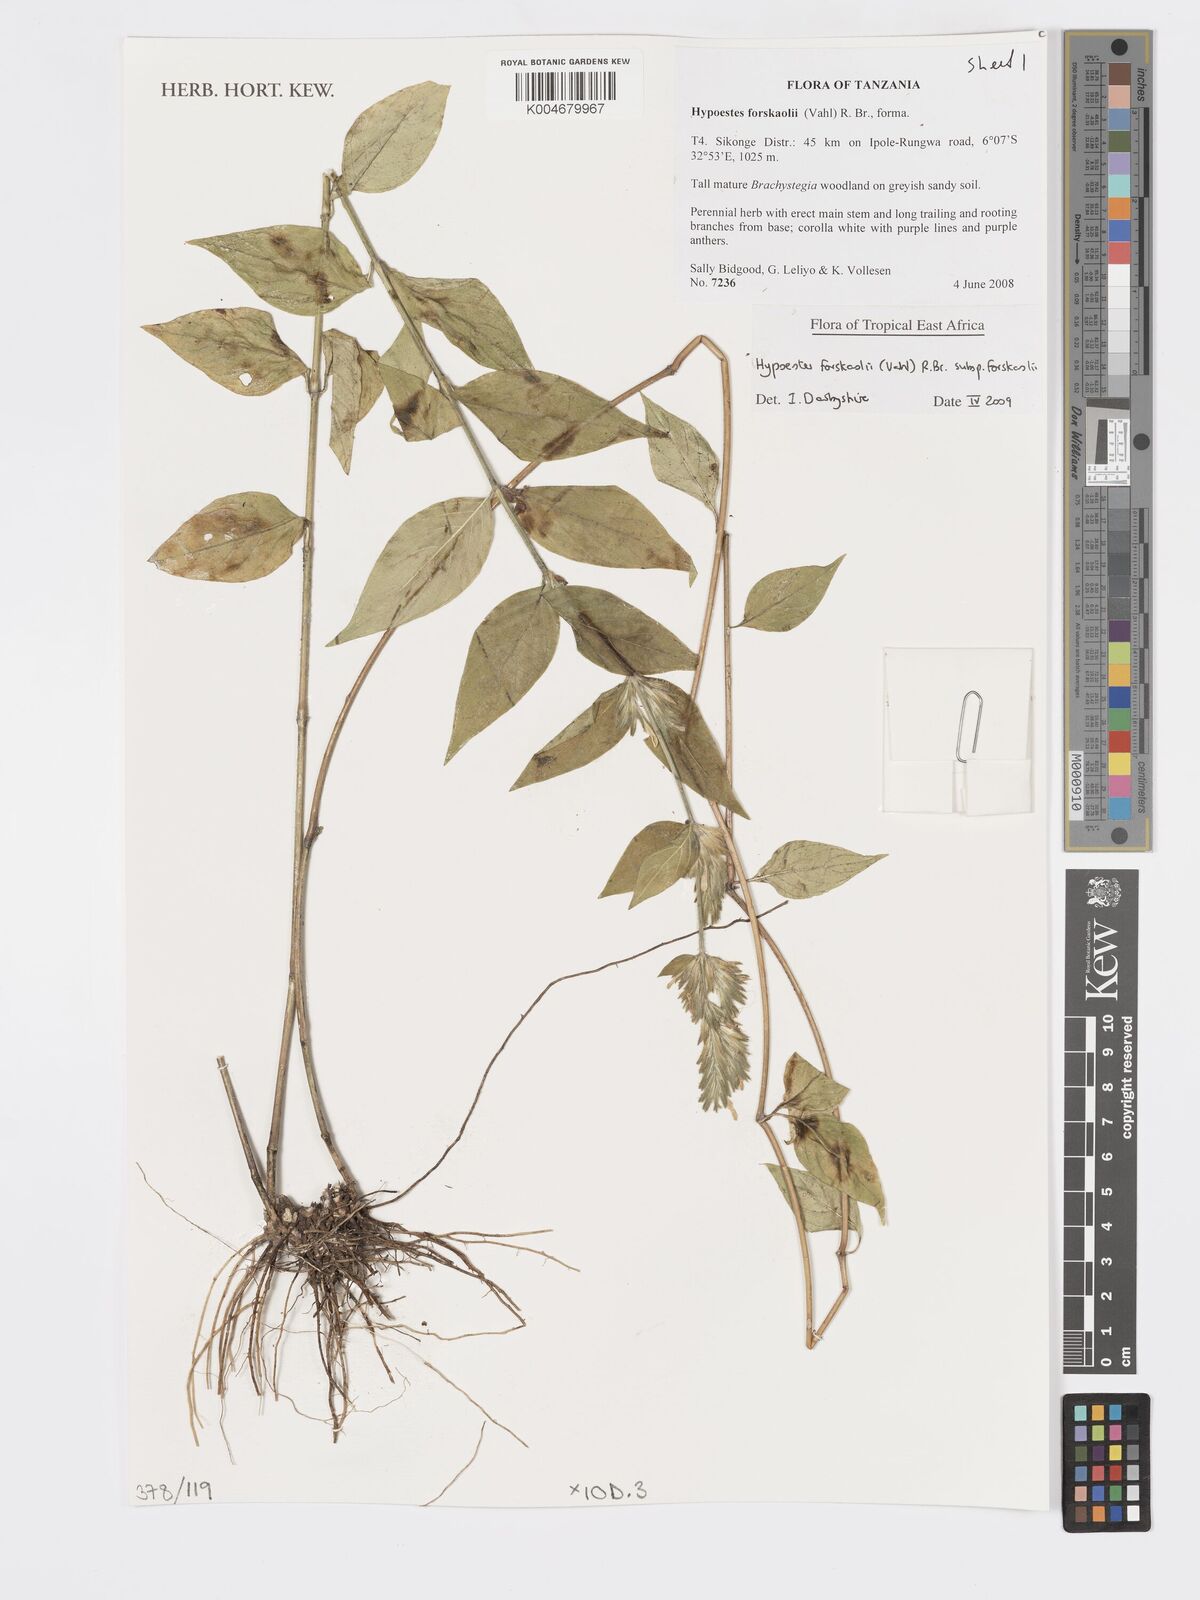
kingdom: Plantae
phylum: Tracheophyta
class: Magnoliopsida
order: Lamiales
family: Acanthaceae
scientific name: Acanthaceae
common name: Acanthaceae
